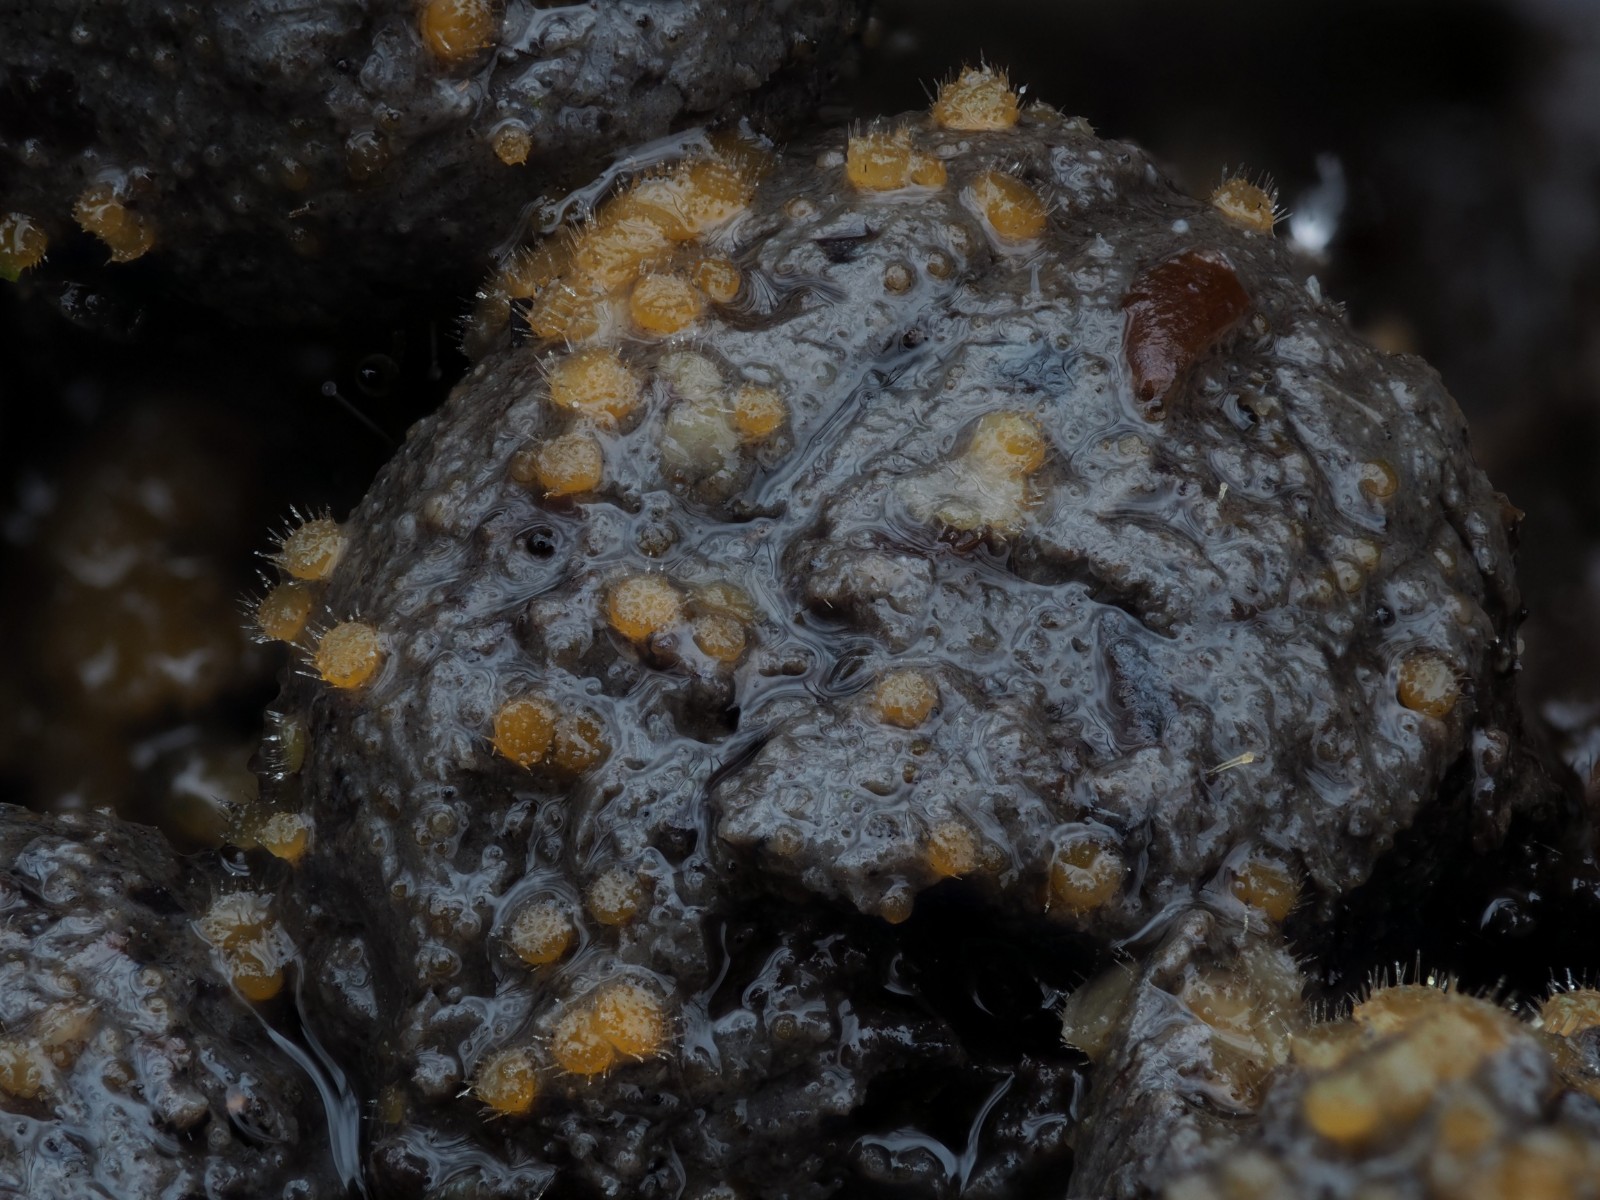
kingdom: Fungi
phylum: Ascomycota
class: Pezizomycetes
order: Pezizales
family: Ascodesmidaceae
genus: Lasiobolus
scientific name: Lasiobolus papillatus
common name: enradet øjebæger
